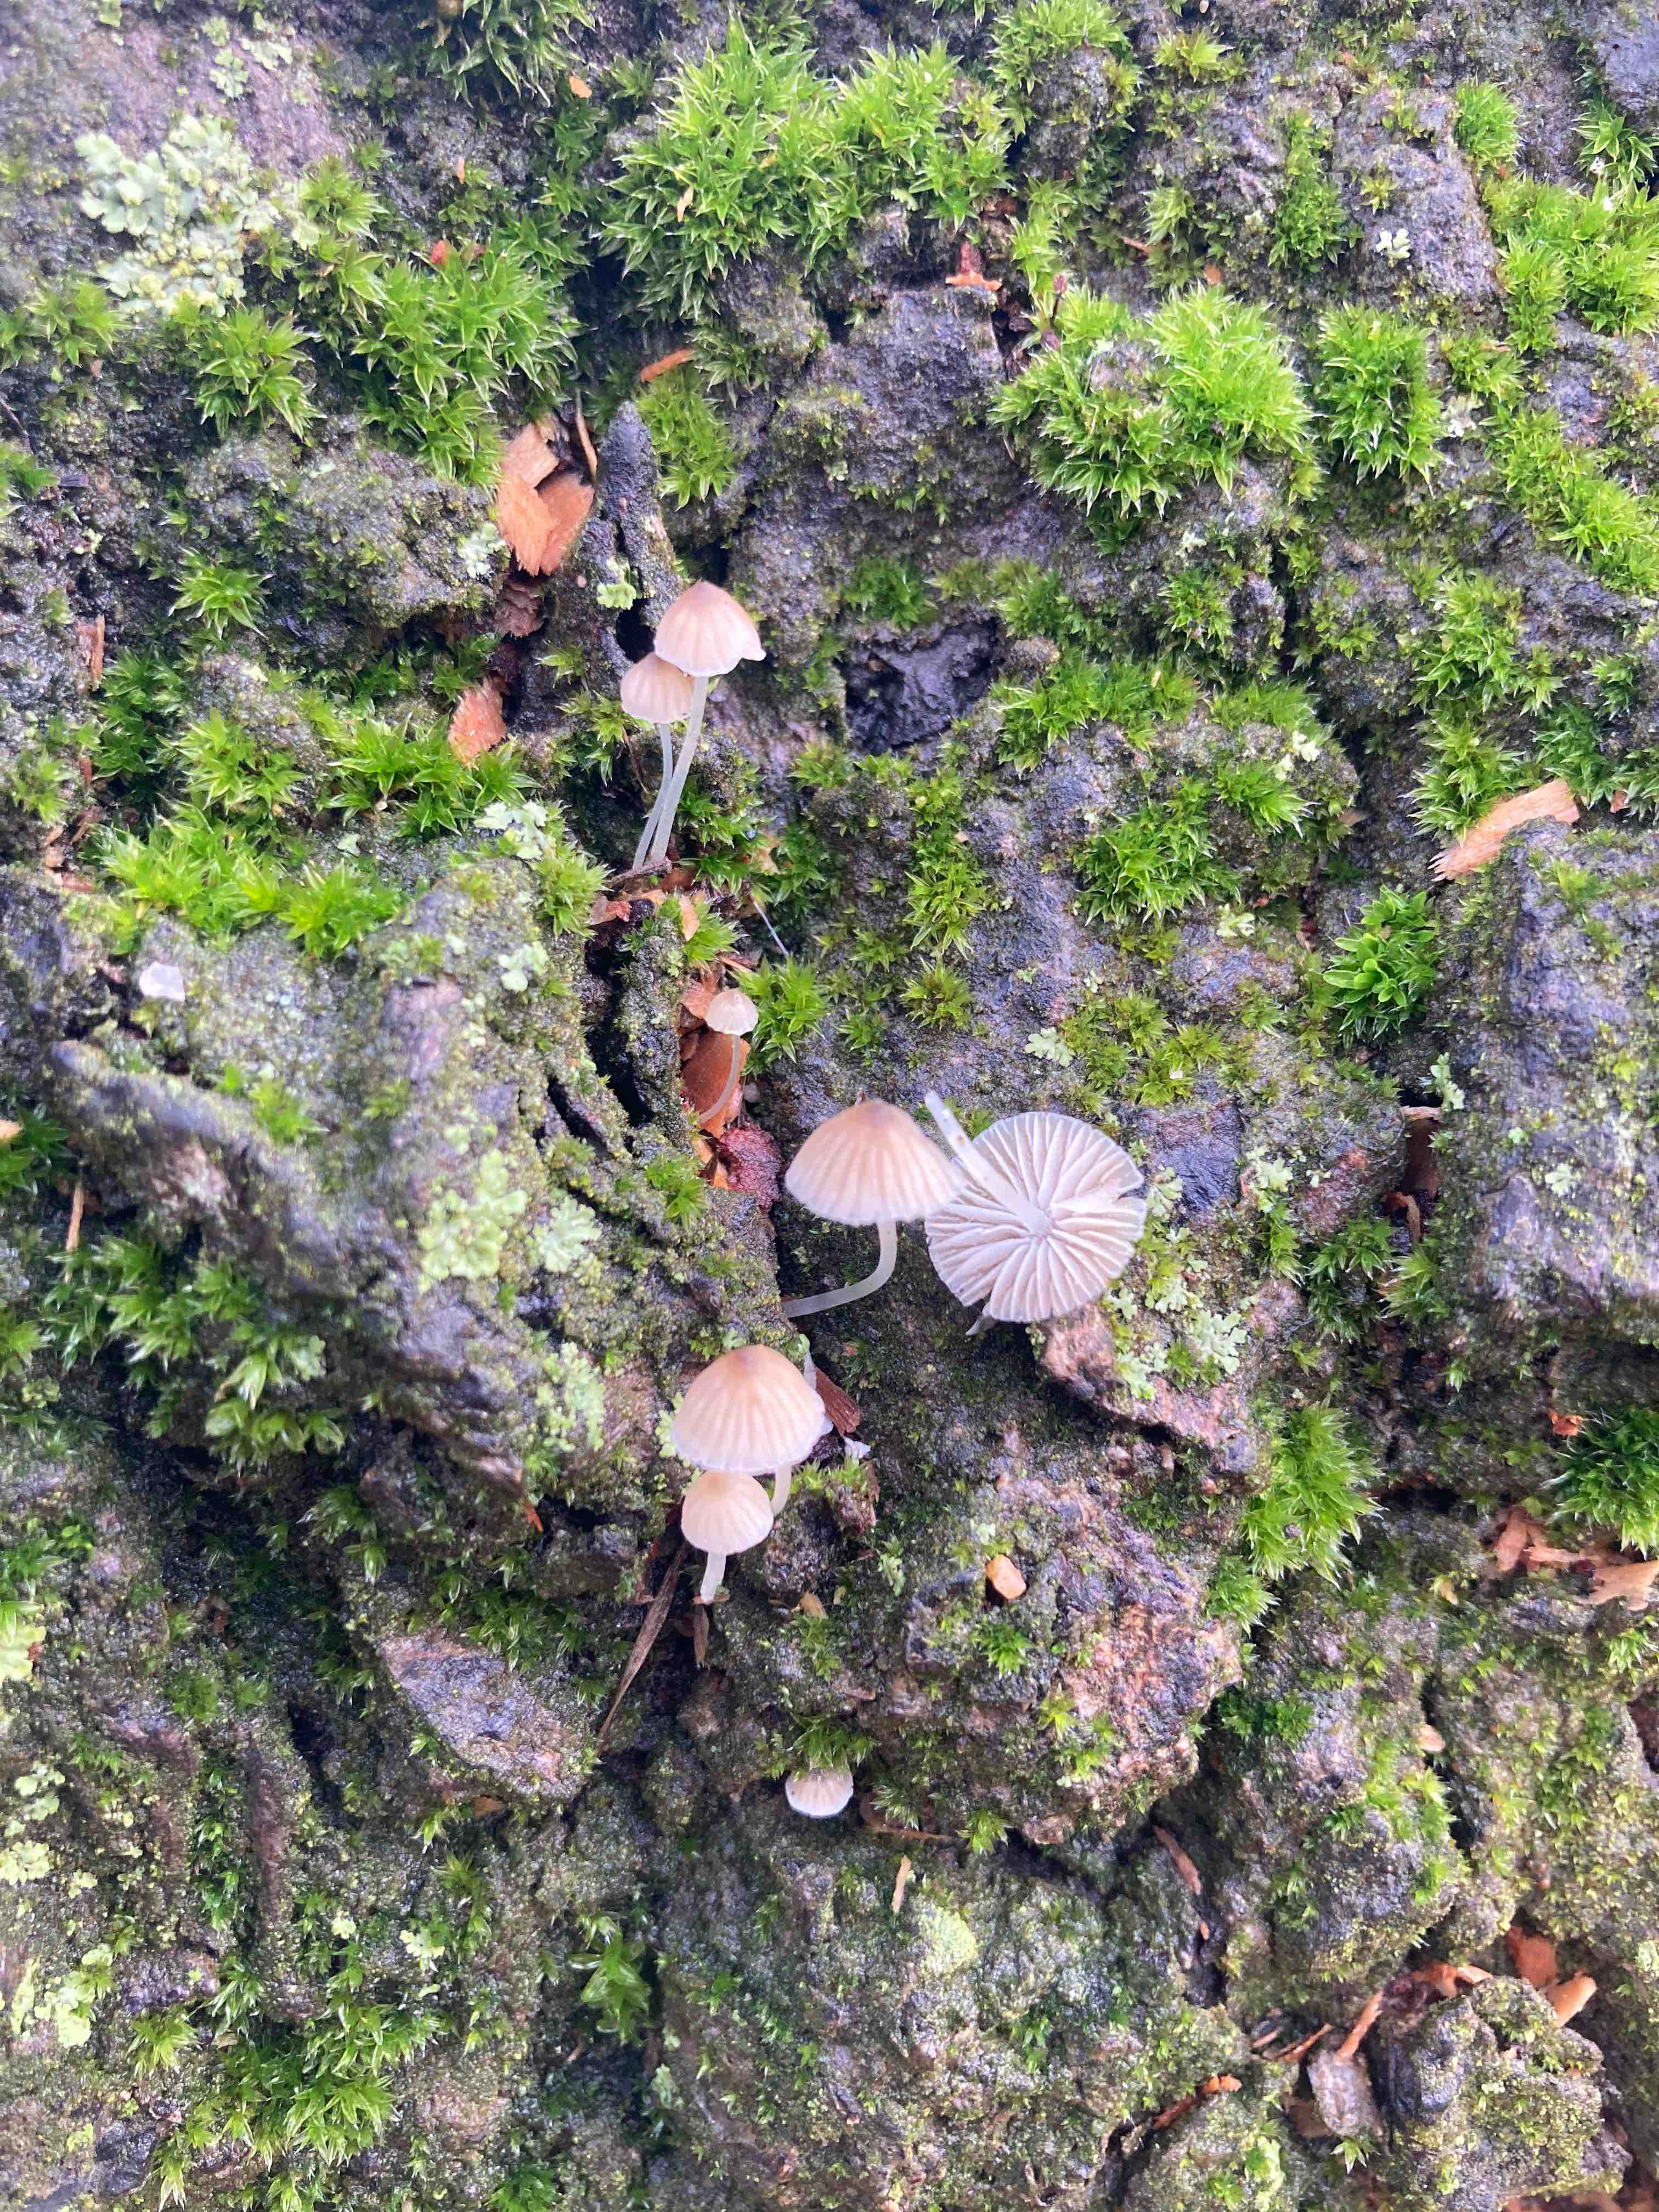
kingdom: Fungi
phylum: Basidiomycota
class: Agaricomycetes
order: Agaricales
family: Porotheleaceae
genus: Phloeomana
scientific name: Phloeomana hiemalis
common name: sen huesvamp
